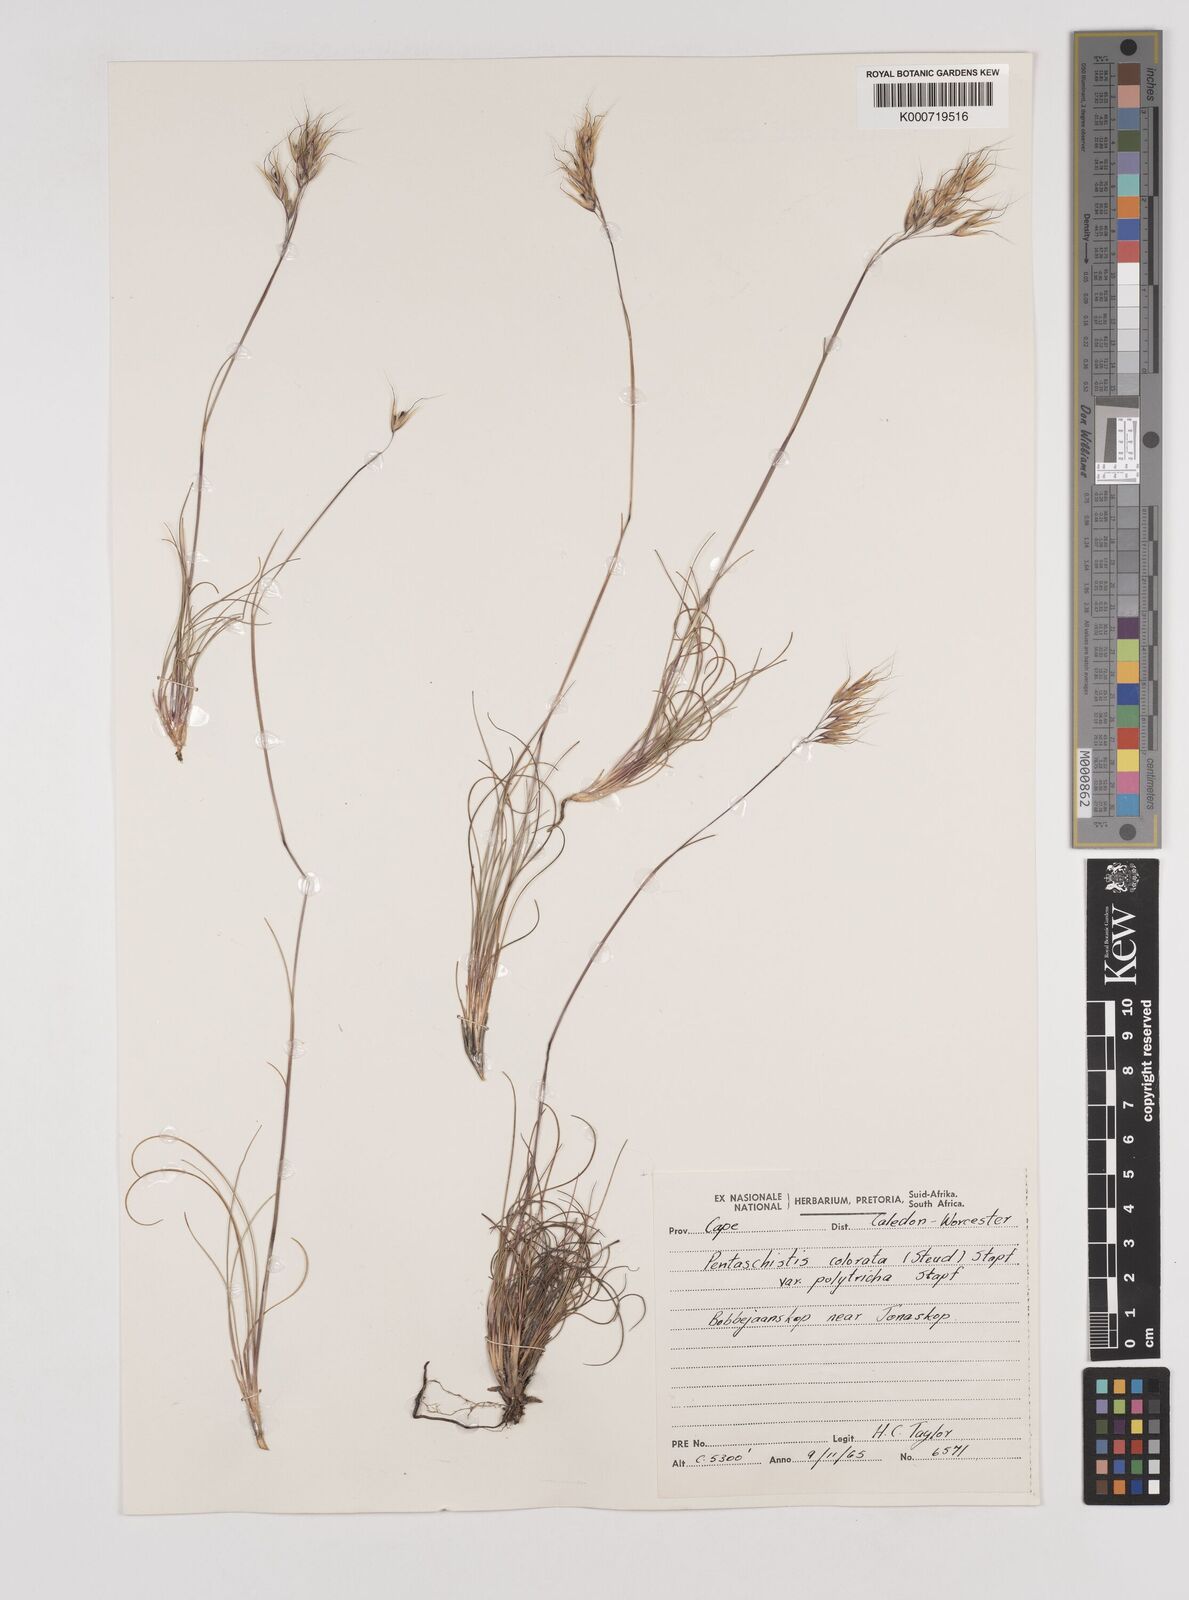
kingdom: Plantae
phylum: Tracheophyta
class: Liliopsida
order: Poales
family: Poaceae
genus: Pentameris
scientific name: Pentameris colorata
